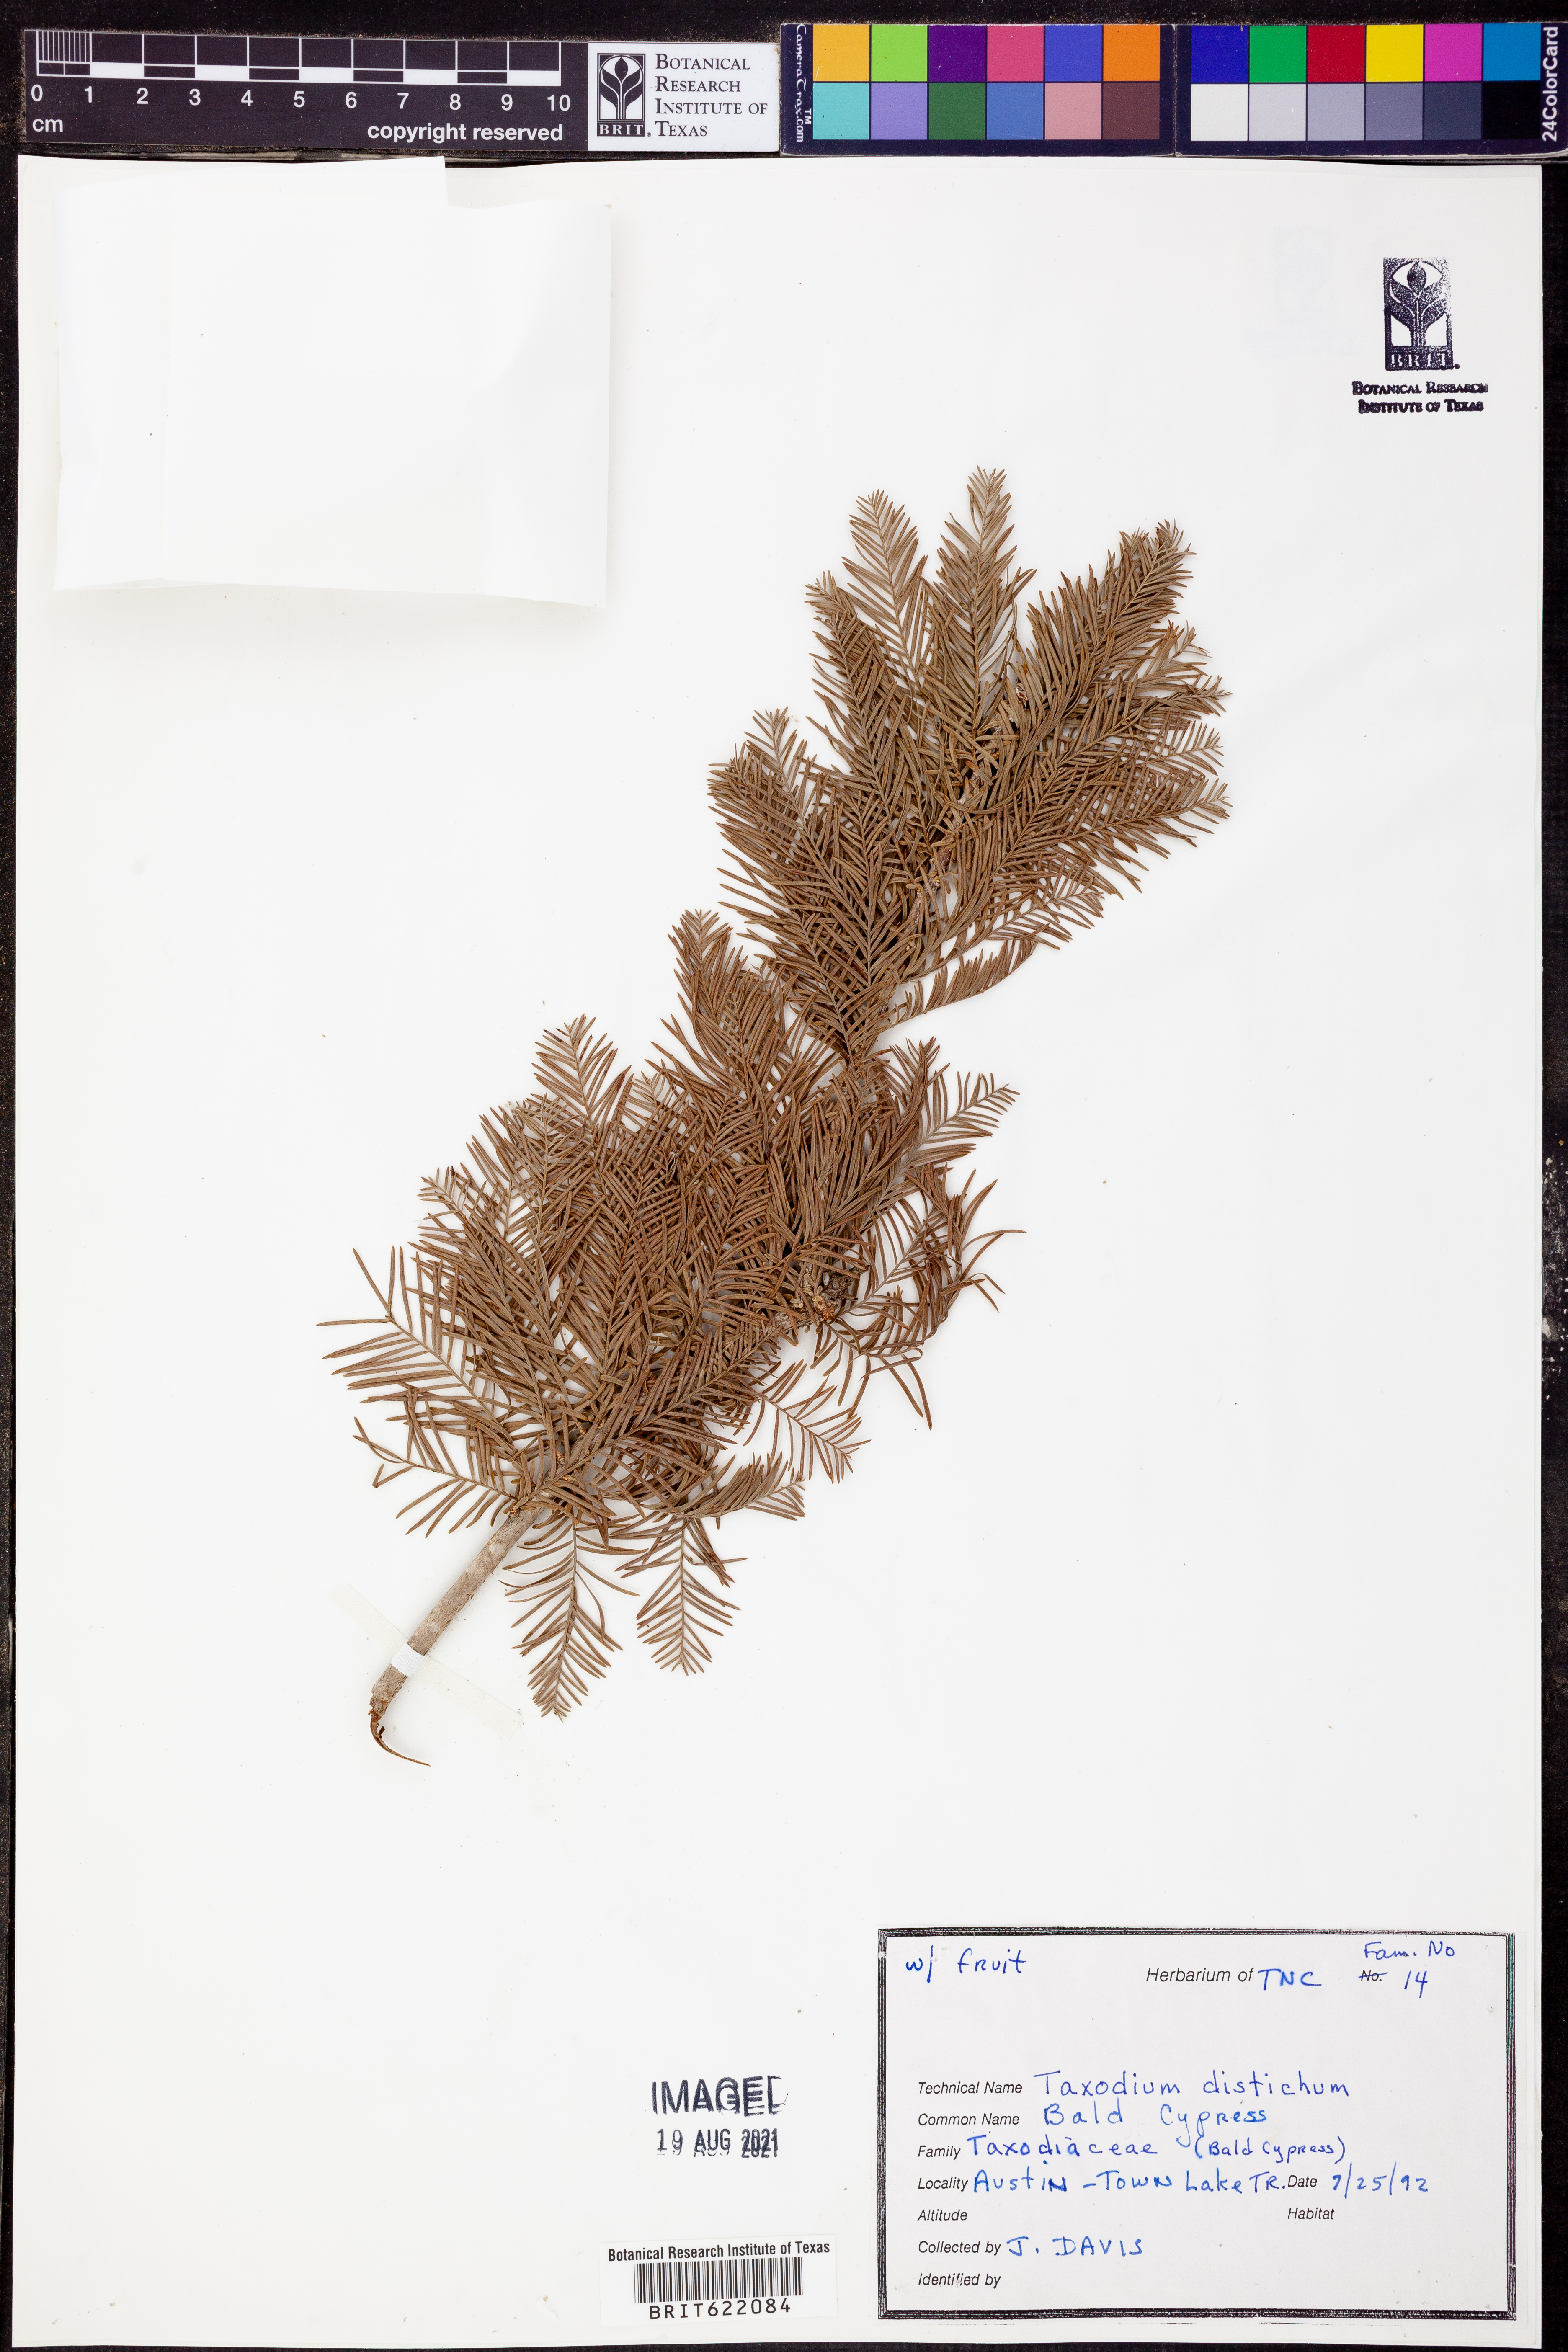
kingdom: Plantae
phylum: Tracheophyta
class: Pinopsida
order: Pinales
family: Cupressaceae
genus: Taxodium
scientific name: Taxodium distichum
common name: Bald cypress
